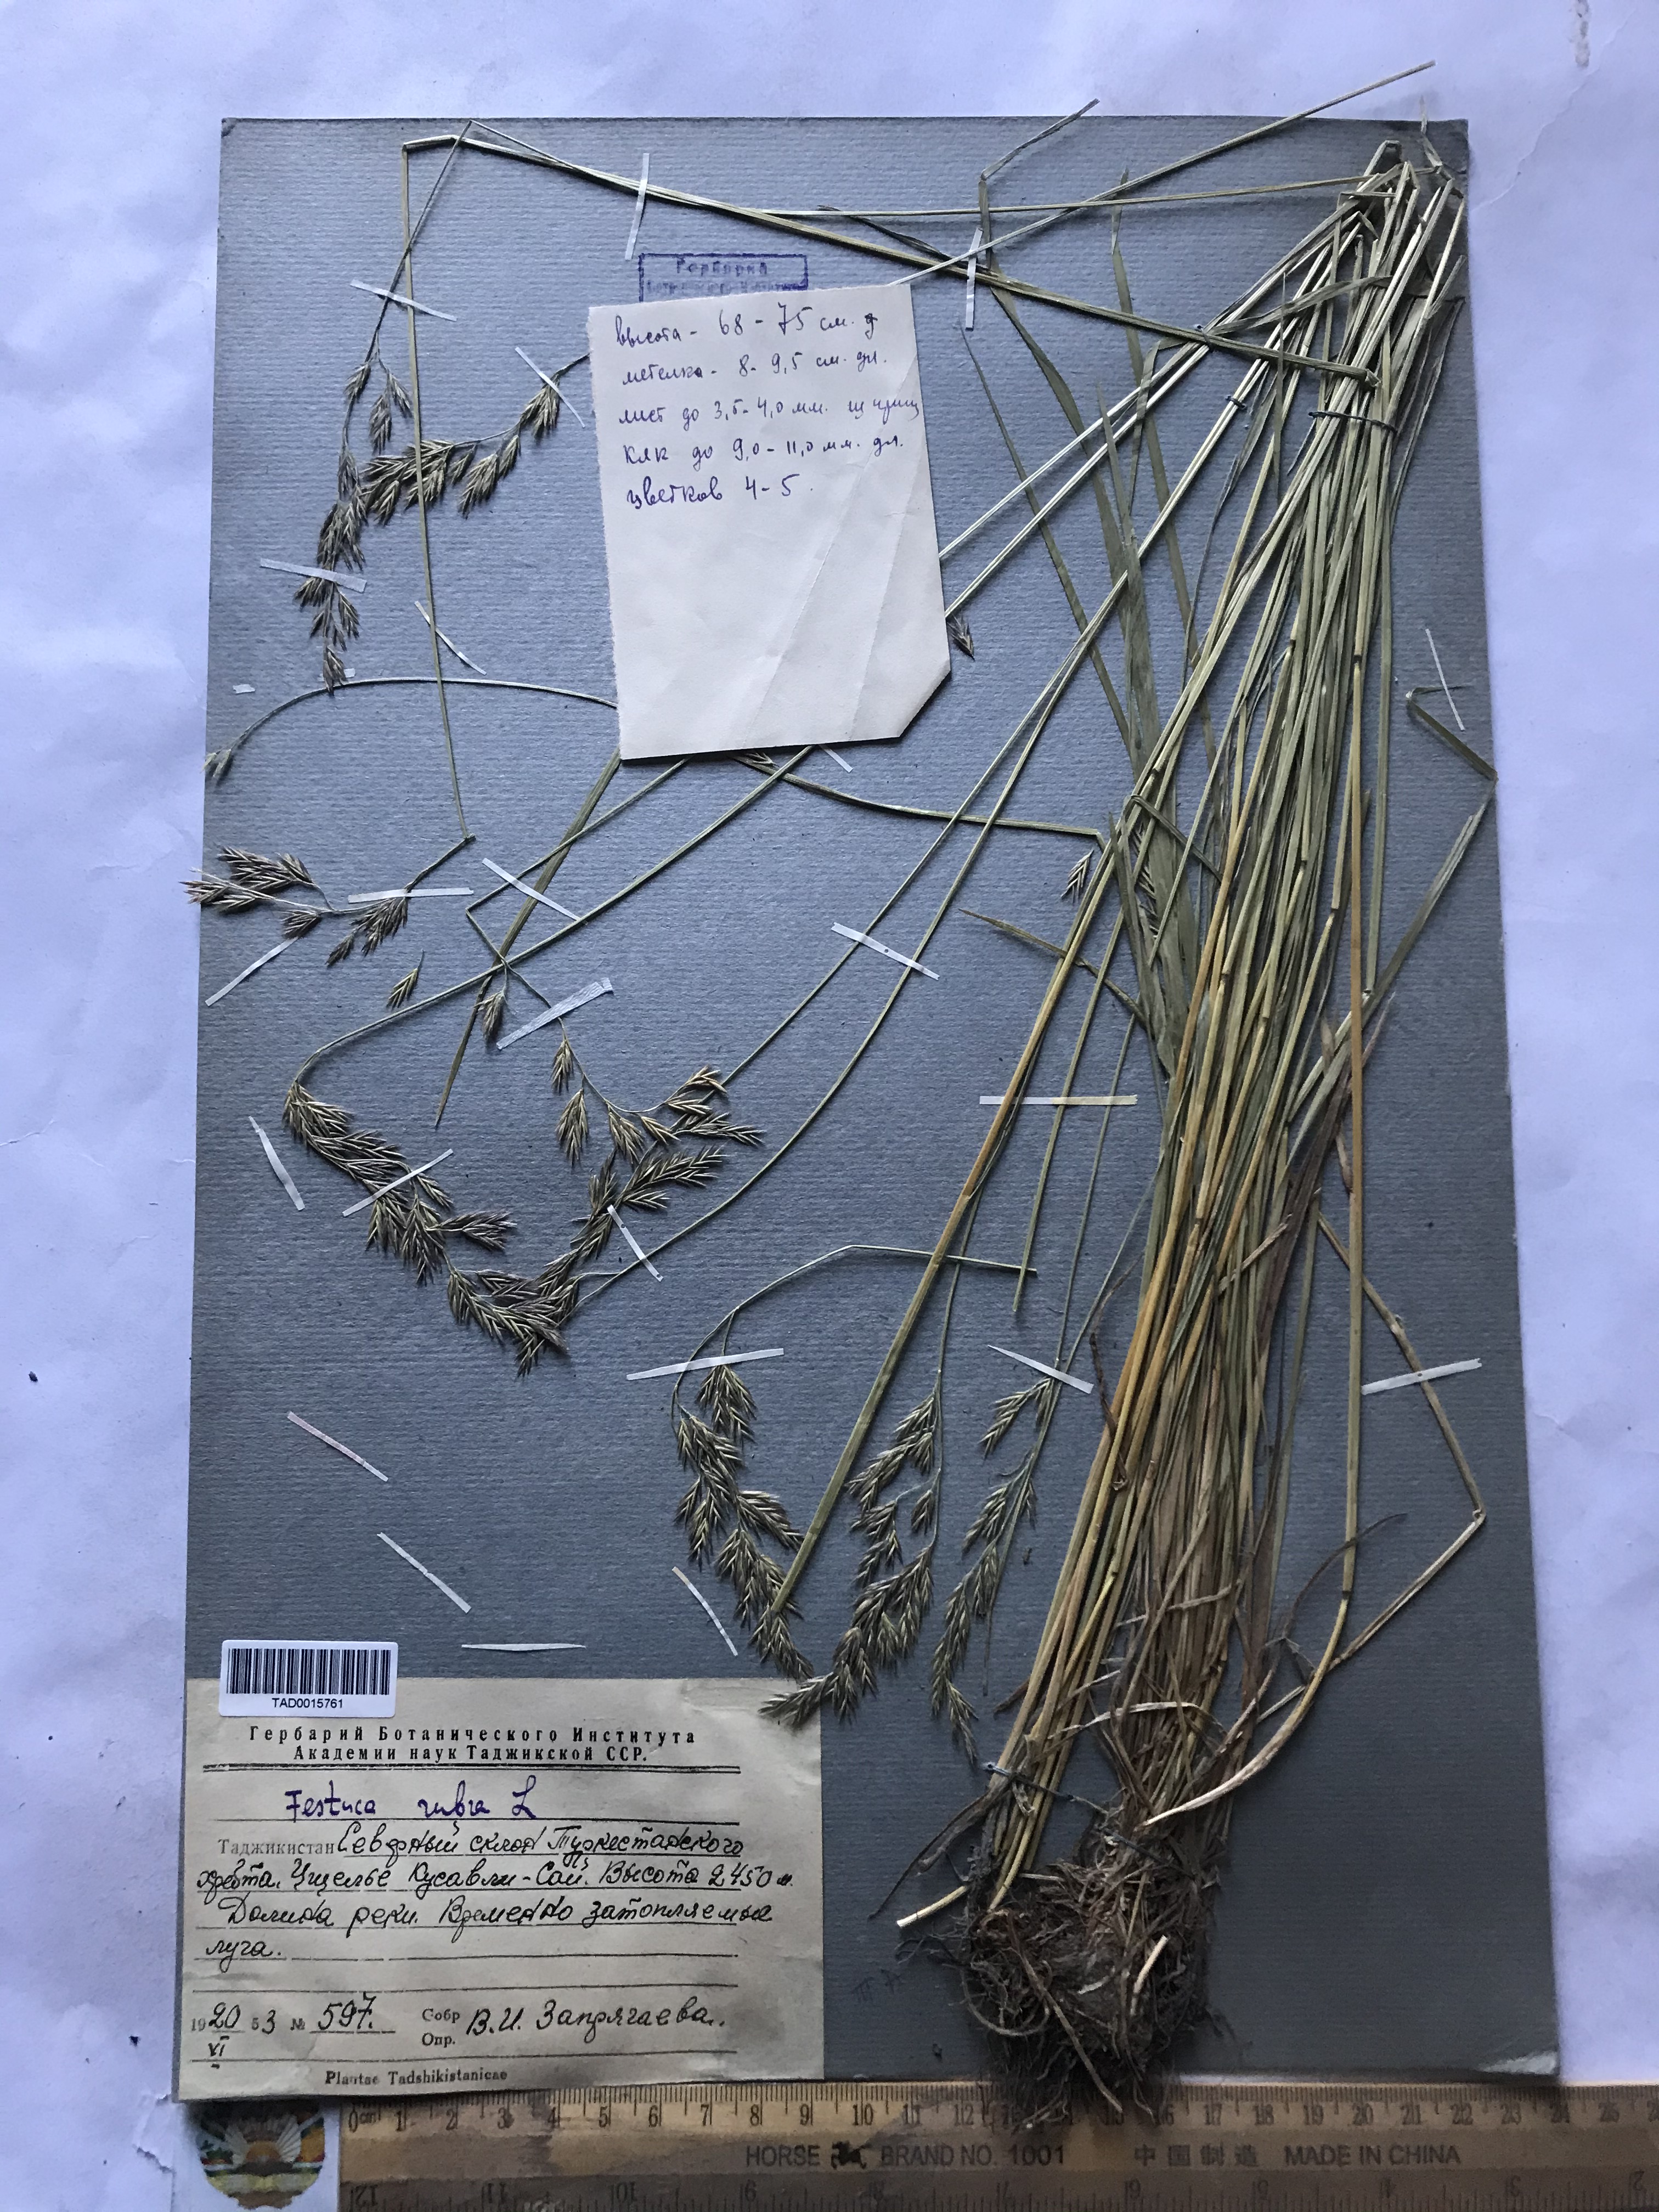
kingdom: Plantae
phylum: Tracheophyta
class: Liliopsida
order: Poales
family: Poaceae
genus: Festuca
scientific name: Festuca rubra
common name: Red fescue
